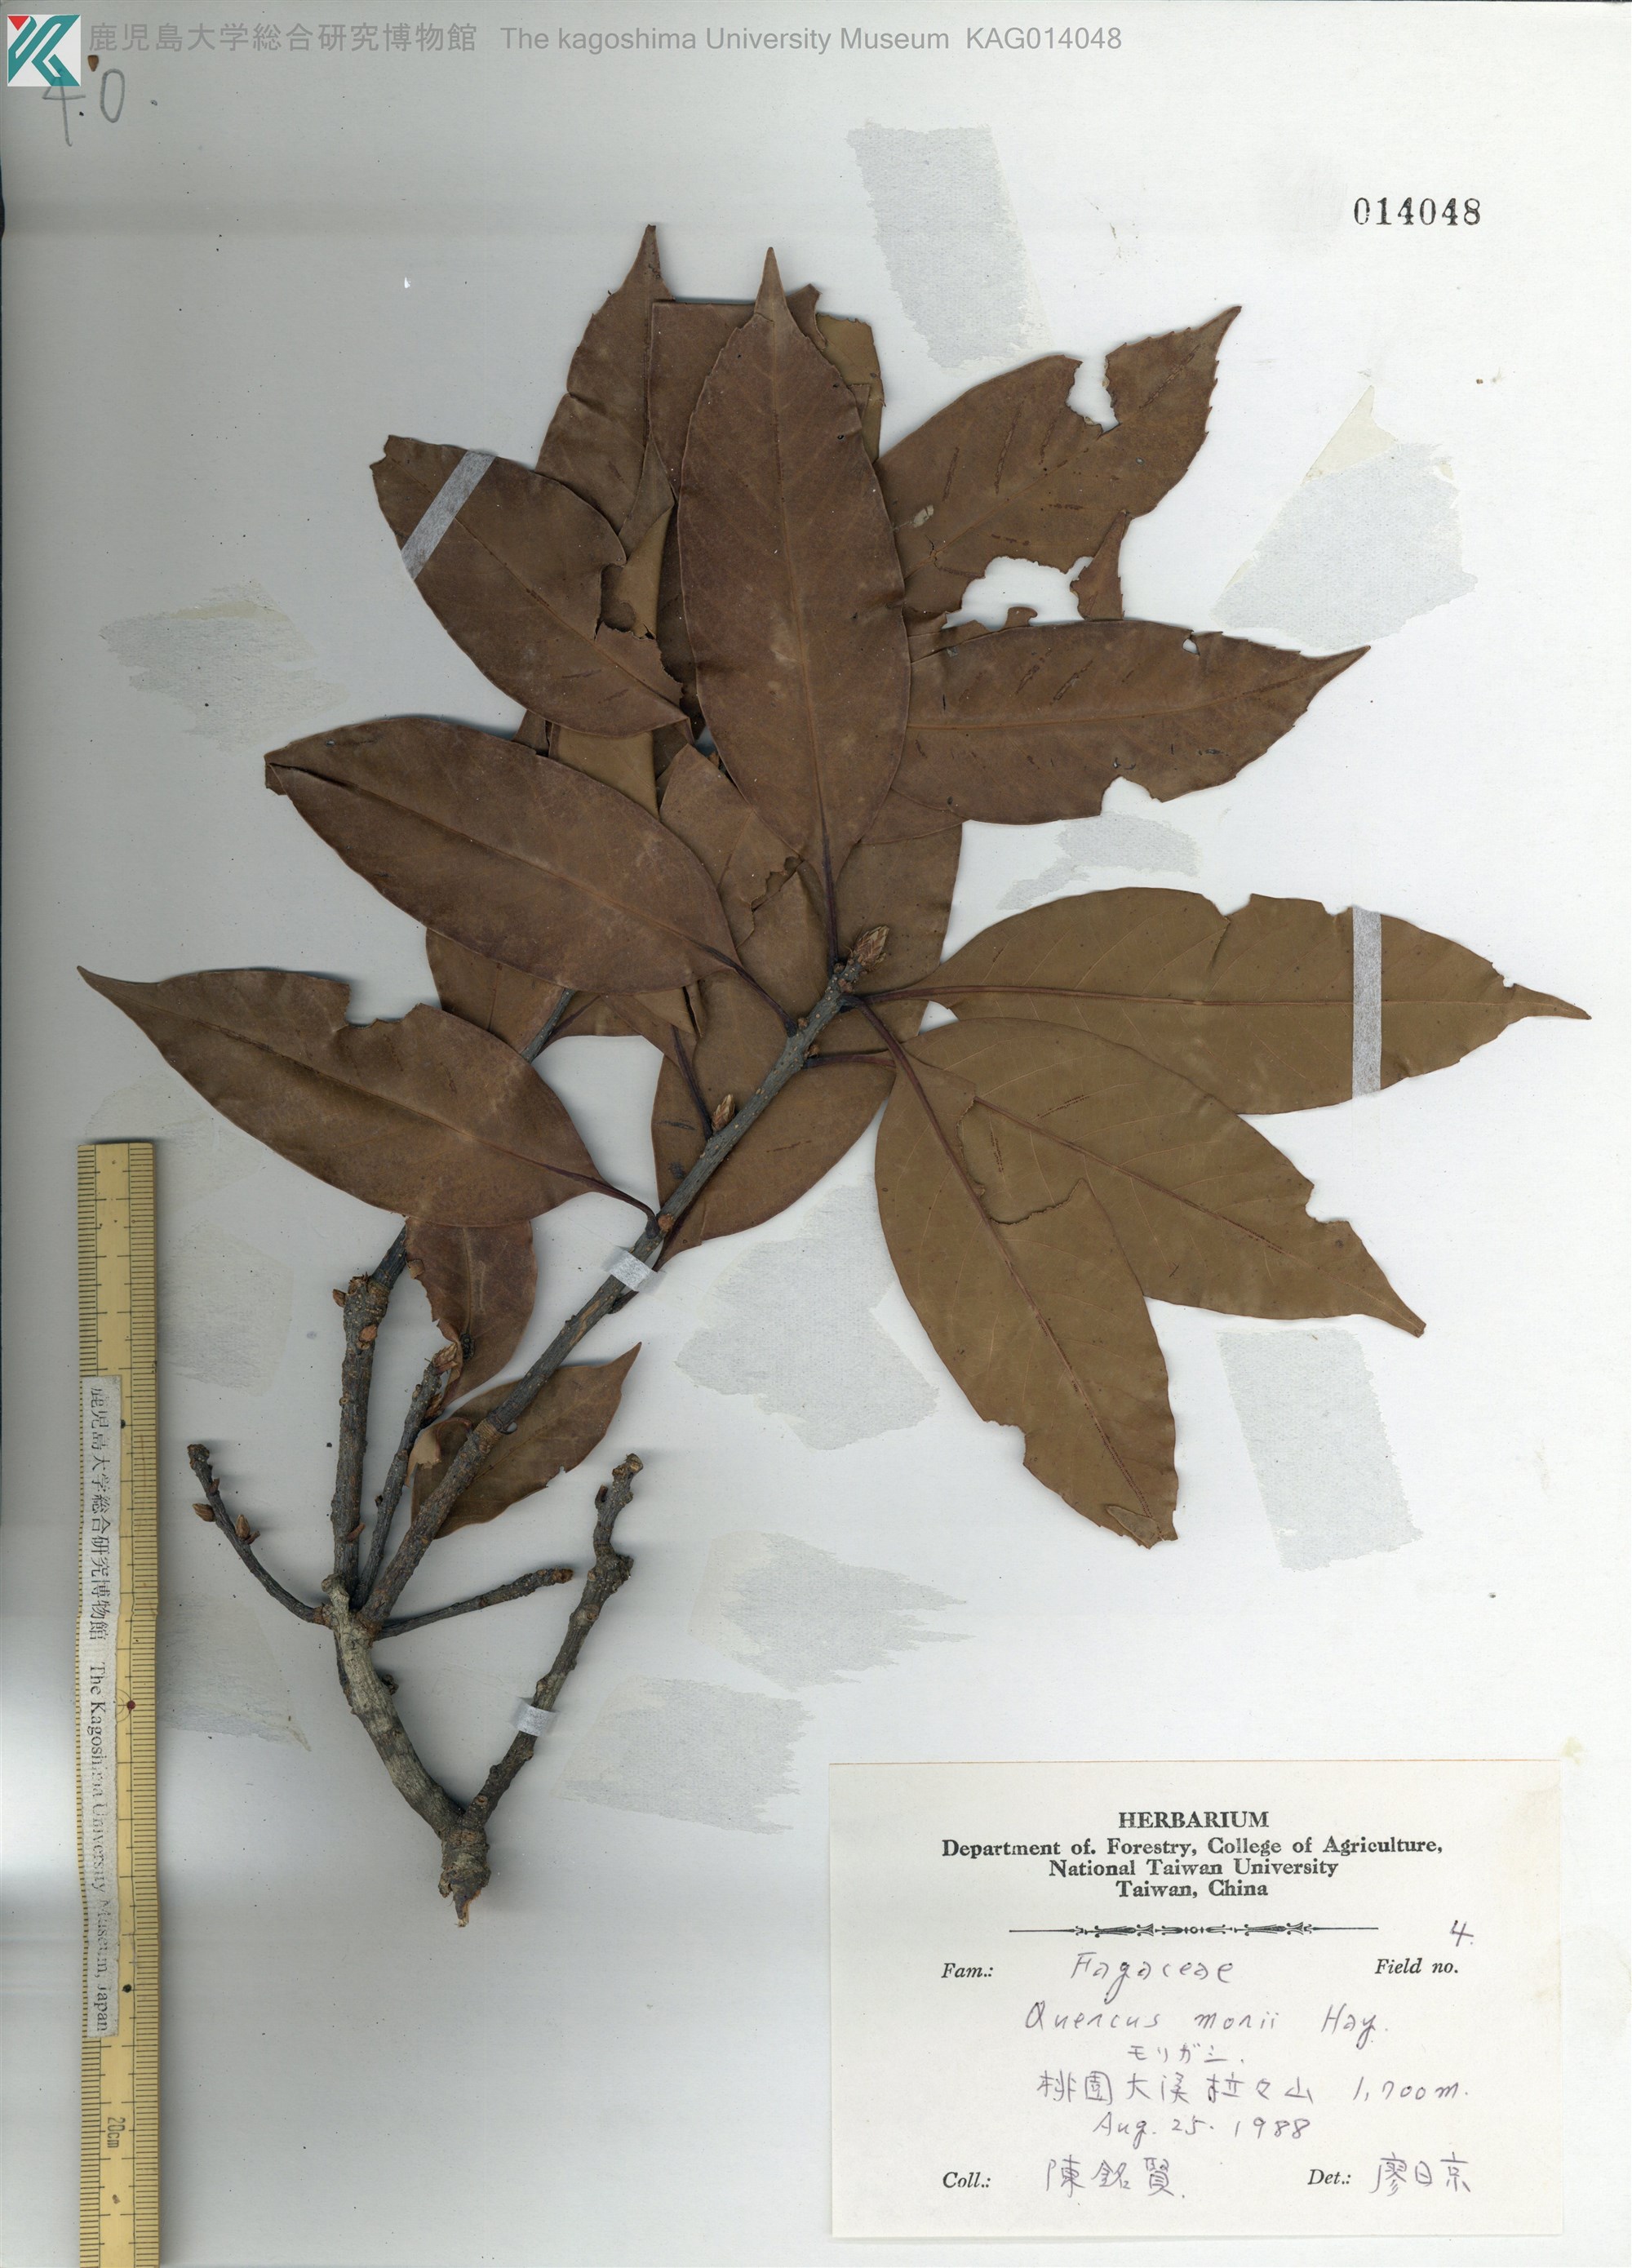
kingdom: Plantae
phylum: Tracheophyta
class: Magnoliopsida
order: Fagales
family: Fagaceae
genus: Quercus
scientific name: Quercus morii
